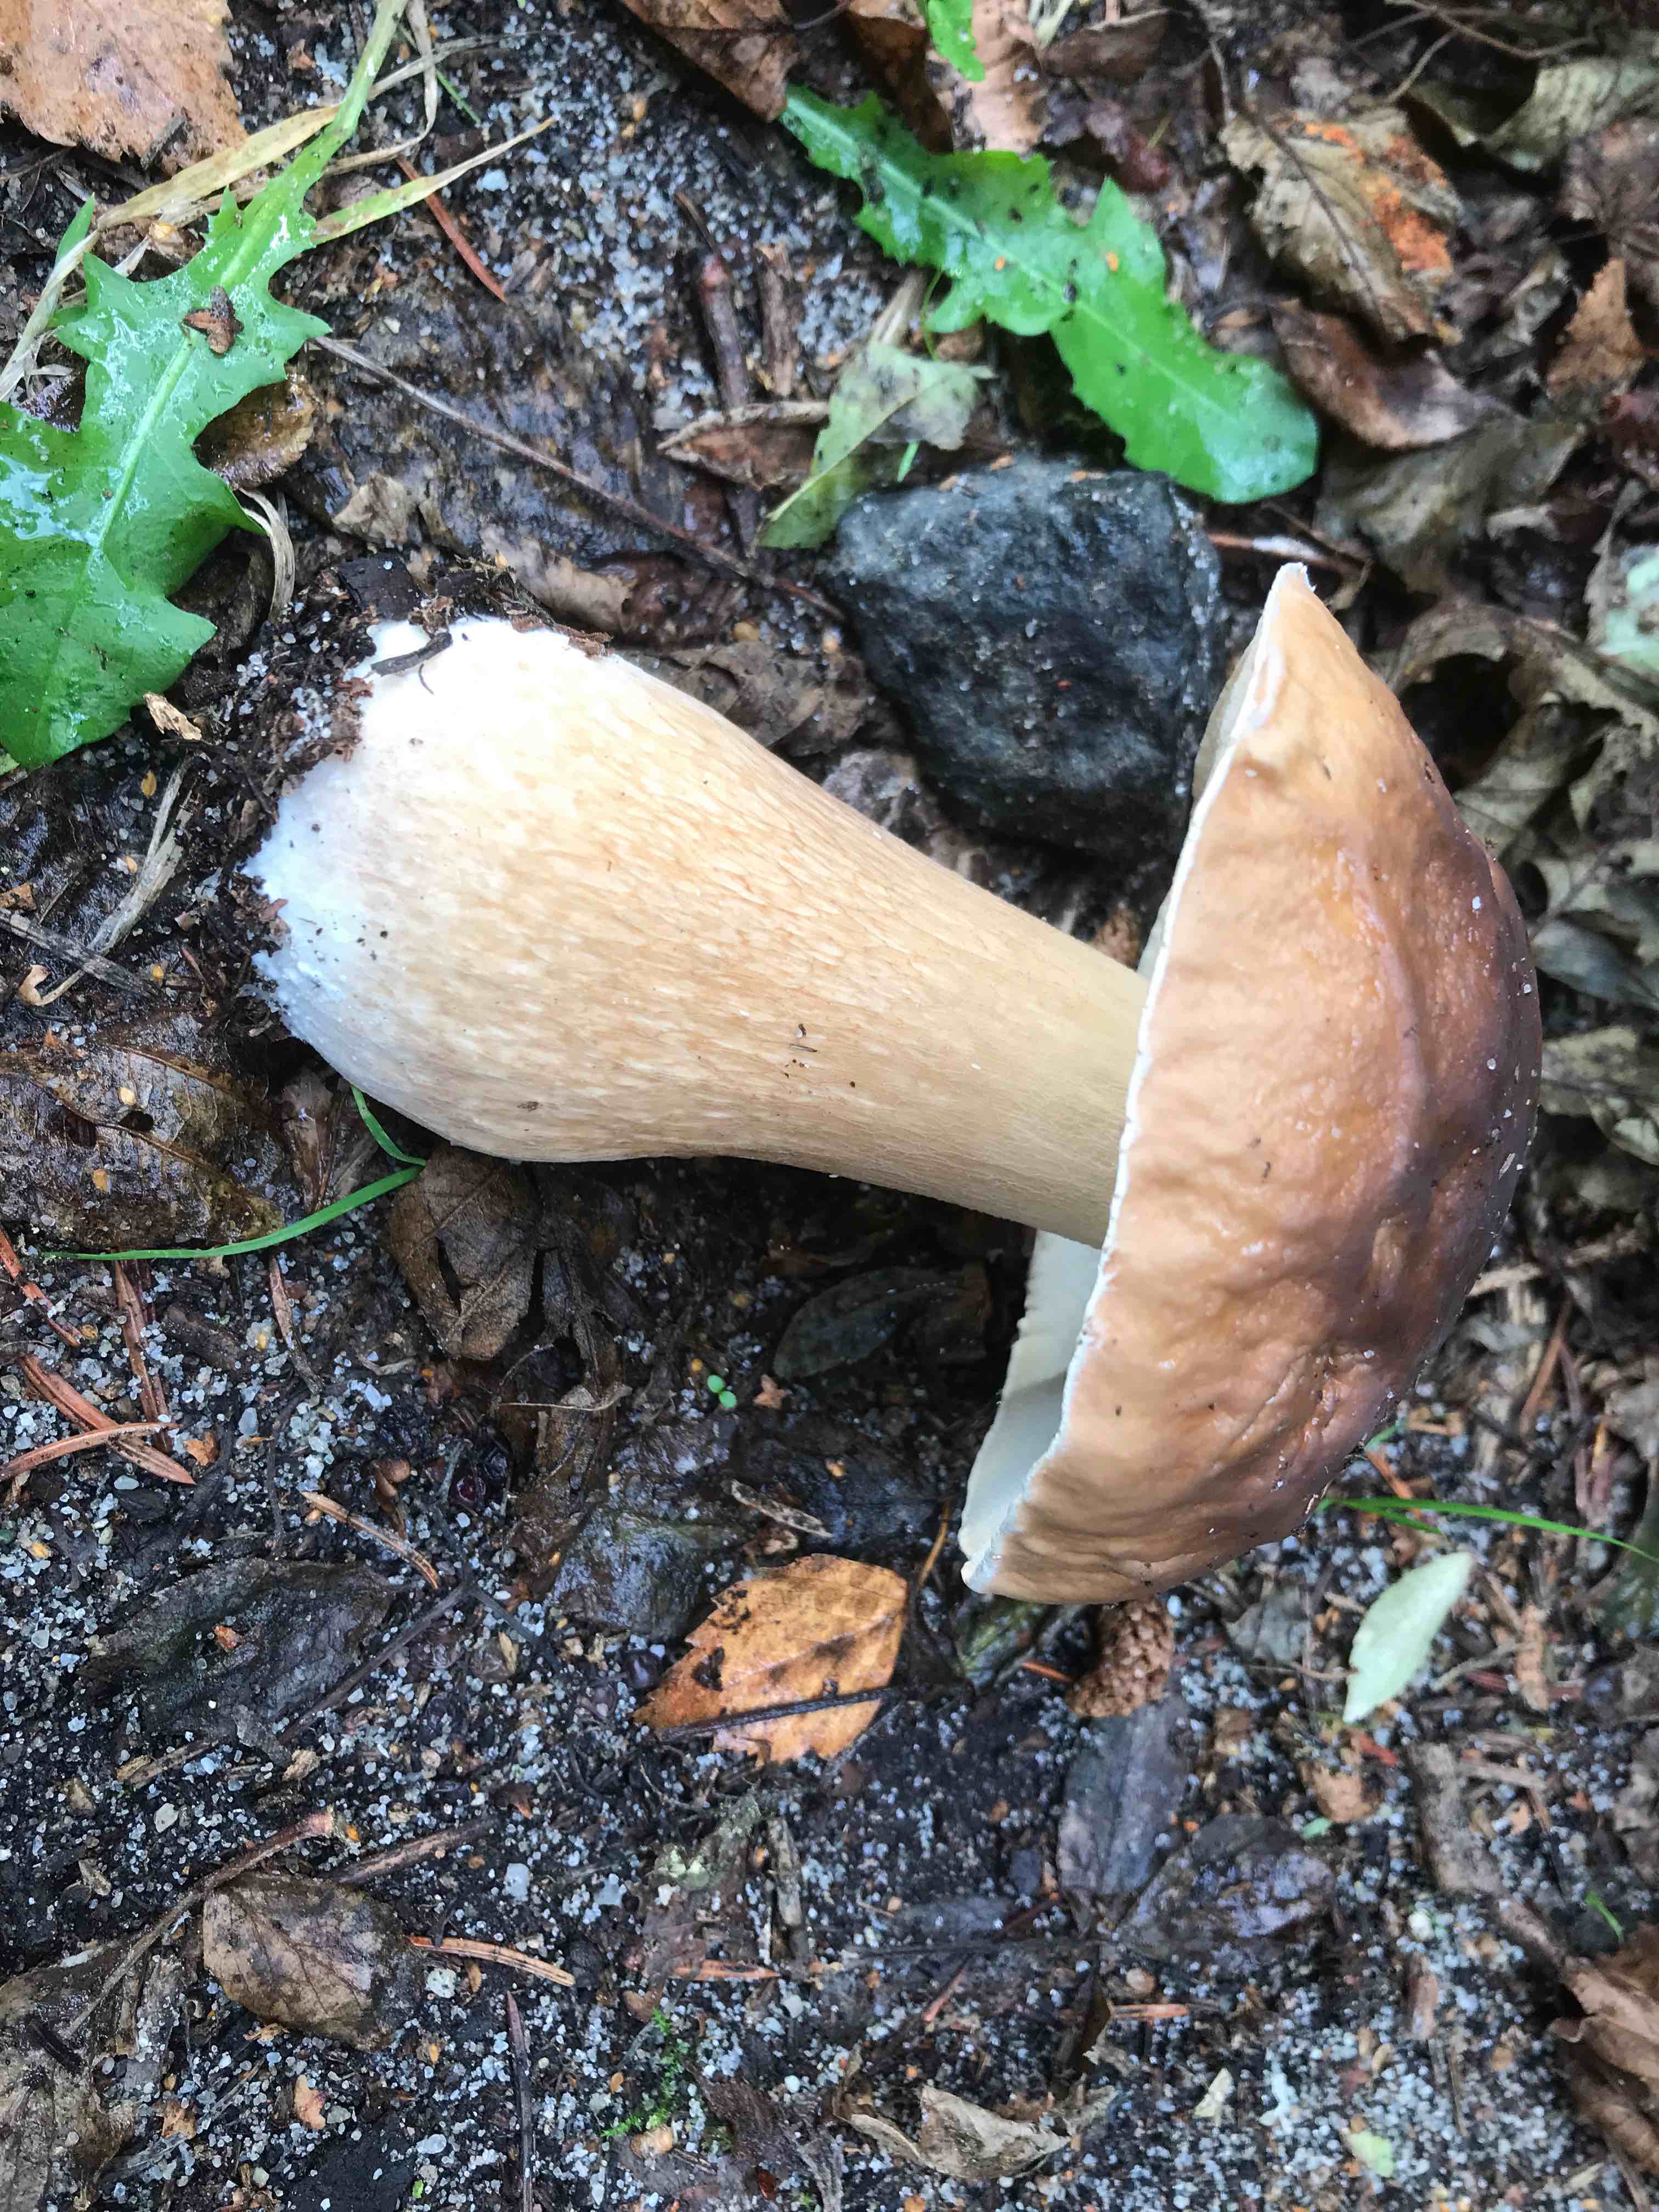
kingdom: Fungi
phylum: Basidiomycota
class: Agaricomycetes
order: Boletales
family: Boletaceae
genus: Boletus
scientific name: Boletus edulis
